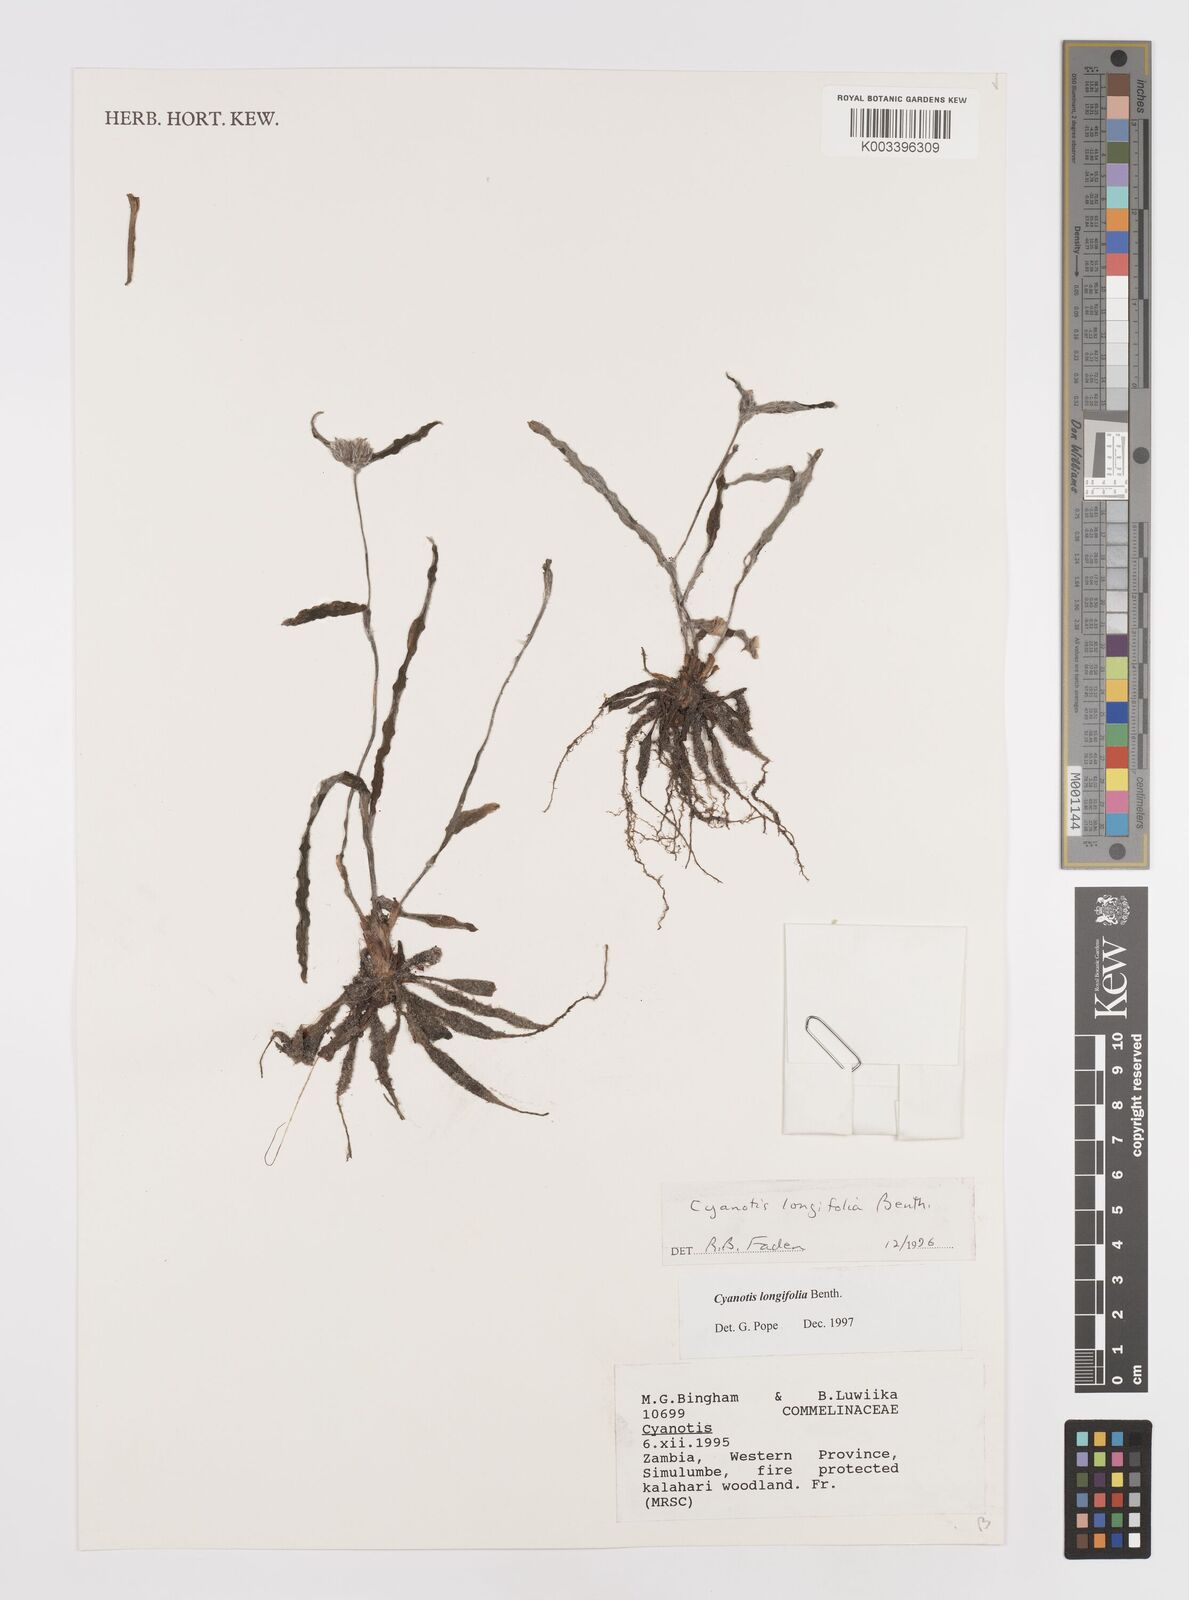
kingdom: Plantae
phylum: Tracheophyta
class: Liliopsida
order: Commelinales
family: Commelinaceae
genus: Cyanotis
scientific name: Cyanotis longifolia
